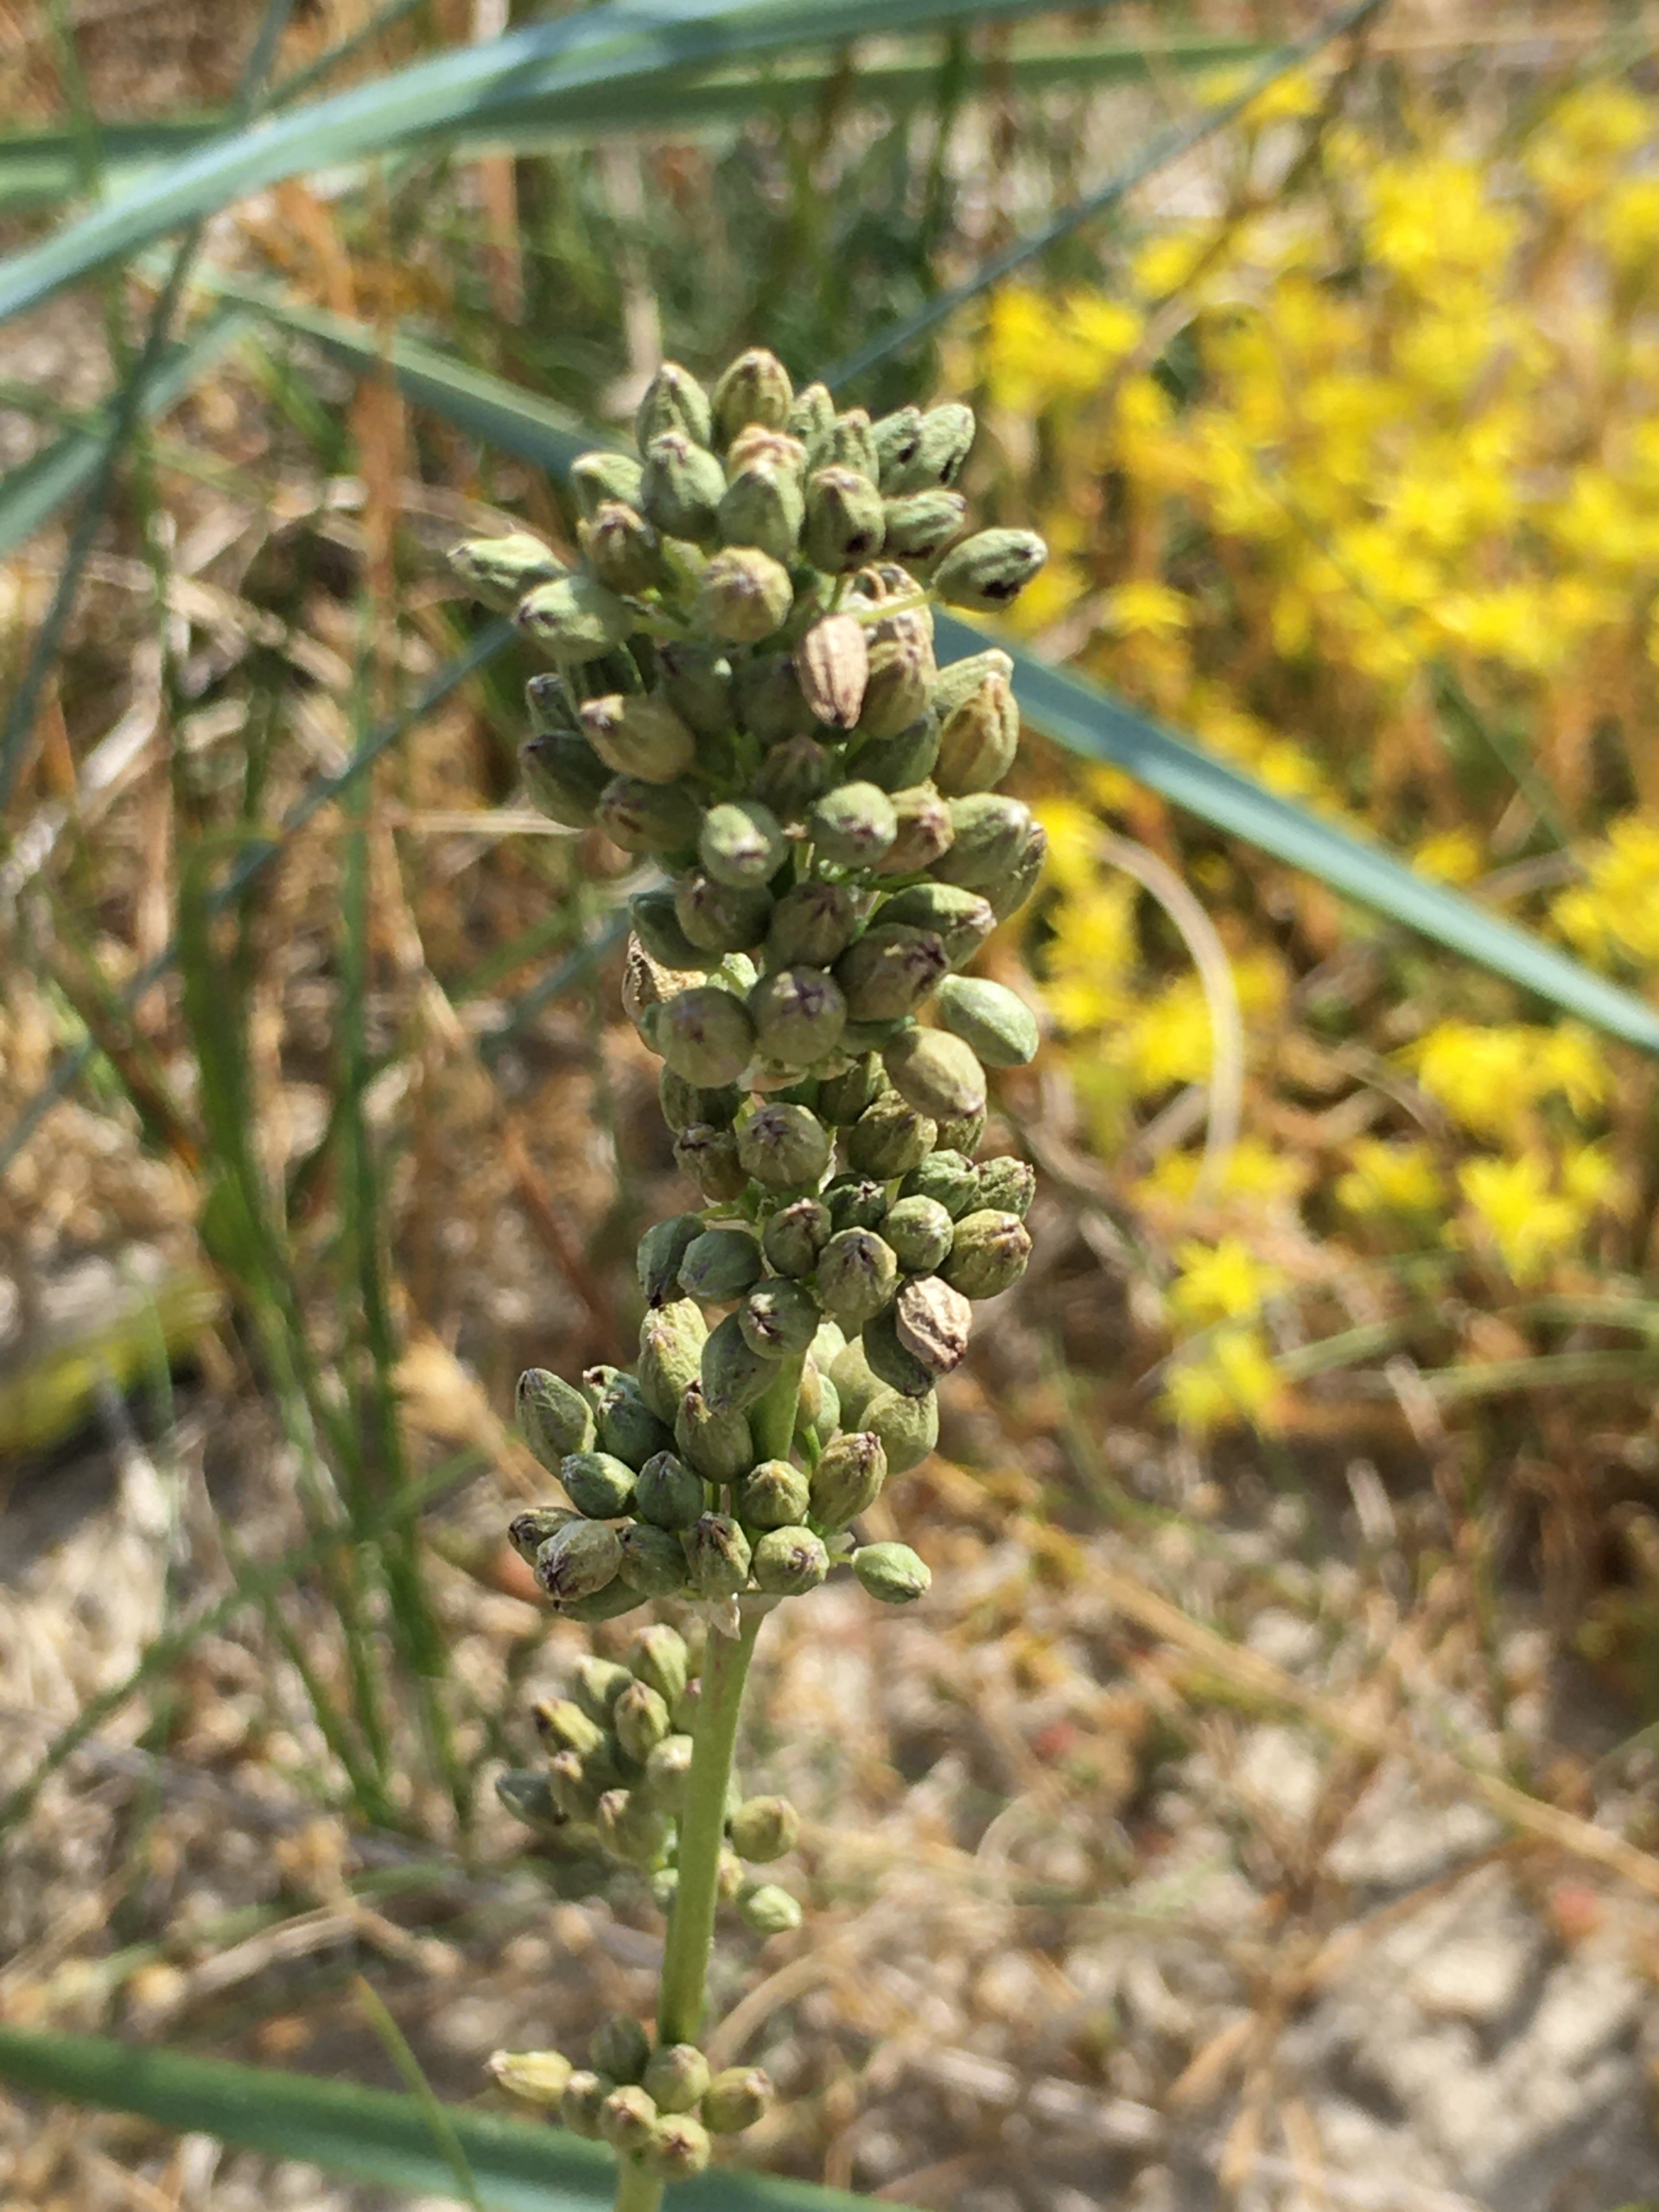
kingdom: Plantae
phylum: Tracheophyta
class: Magnoliopsida
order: Caryophyllales
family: Caryophyllaceae
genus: Silene
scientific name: Silene otites
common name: Klit-limurt
